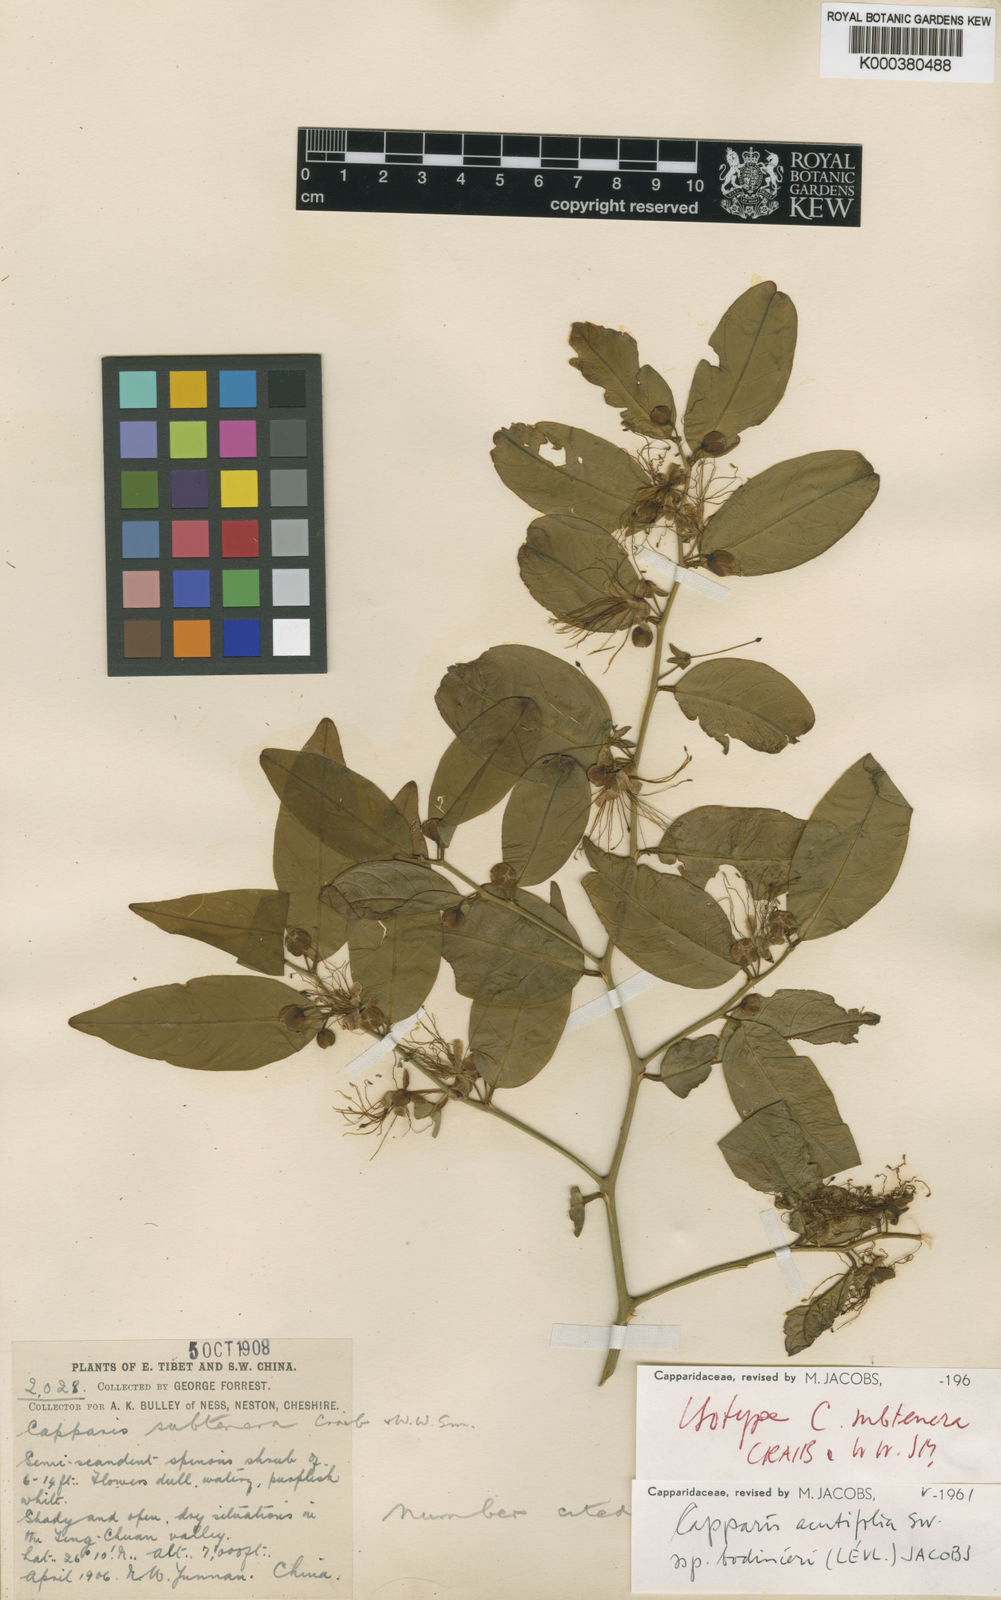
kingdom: Plantae
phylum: Tracheophyta
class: Magnoliopsida
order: Brassicales
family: Capparaceae
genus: Capparis
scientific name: Capparis acutifolia
